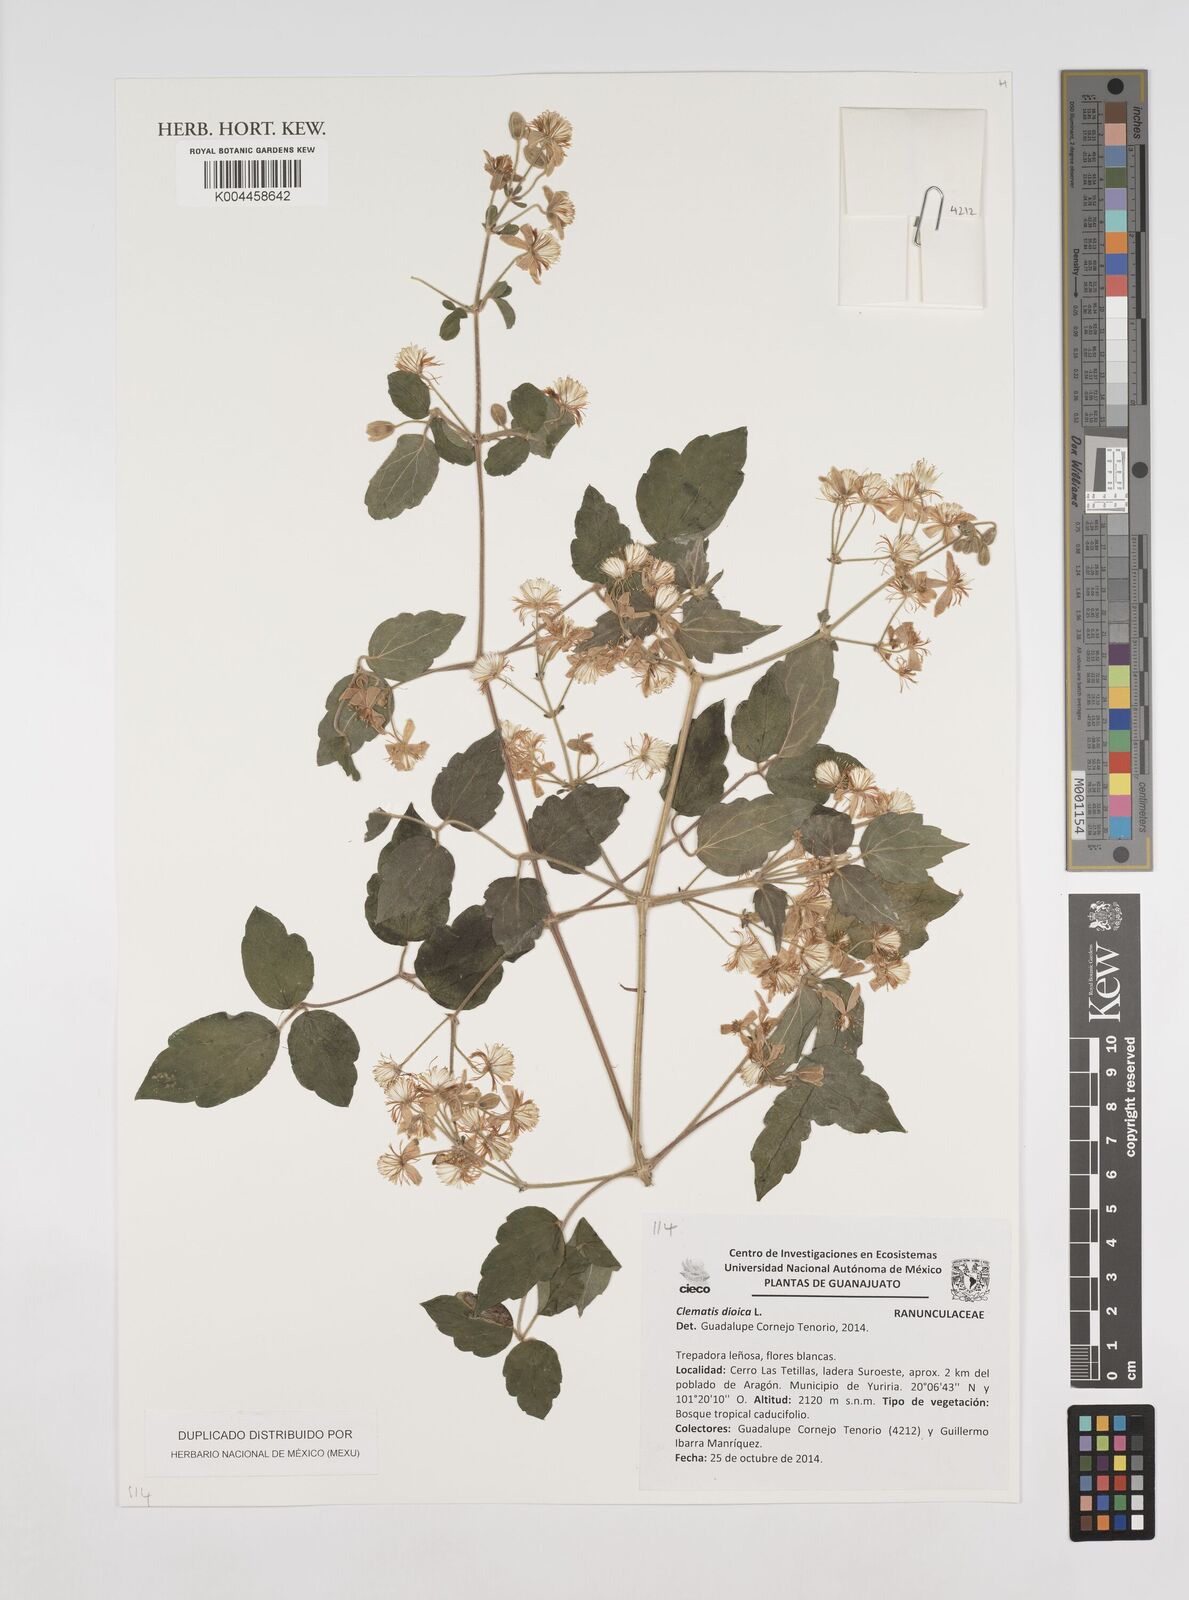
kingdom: Plantae
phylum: Tracheophyta
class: Magnoliopsida
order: Ranunculales
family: Ranunculaceae
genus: Clematis
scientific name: Clematis dioica
